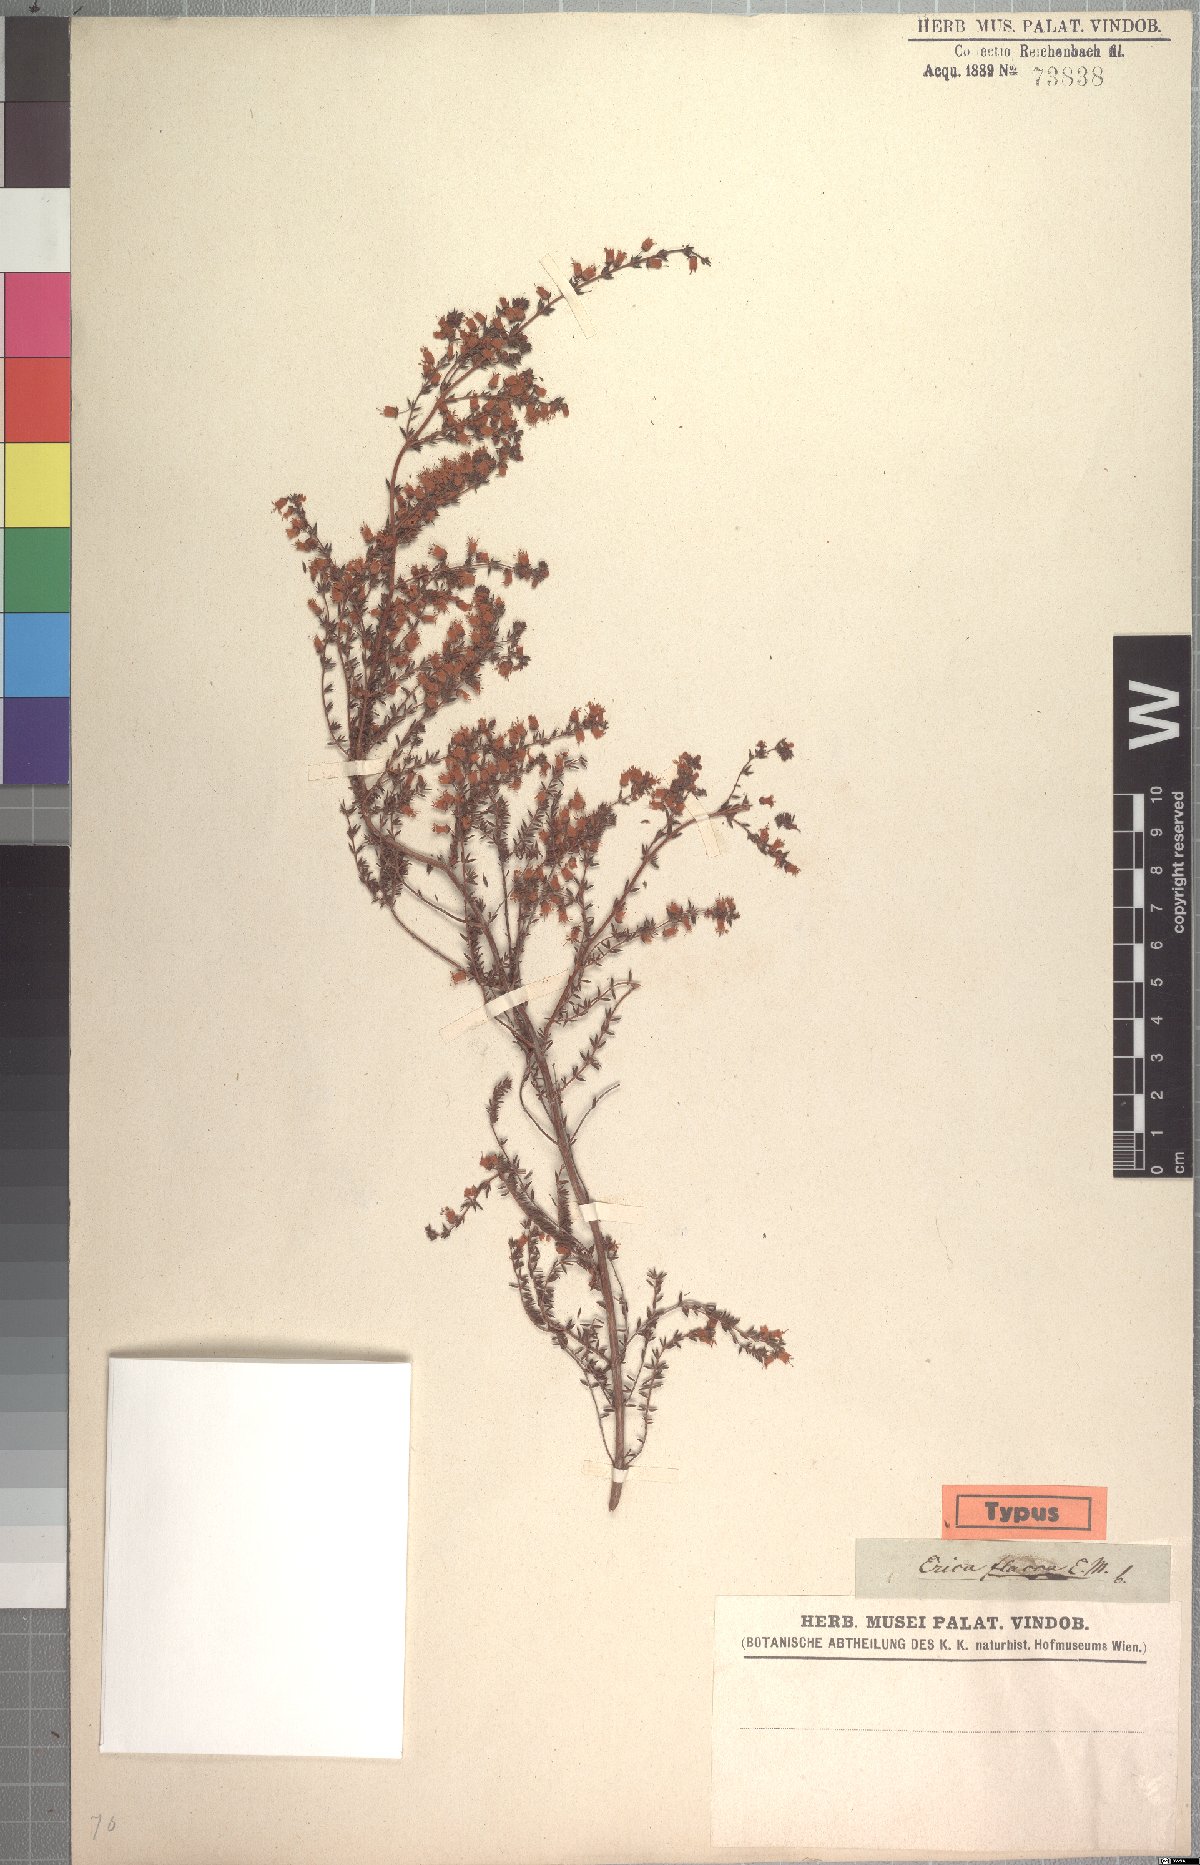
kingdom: Plantae
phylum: Tracheophyta
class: Magnoliopsida
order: Ericales
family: Ericaceae
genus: Erica
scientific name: Erica flacca
